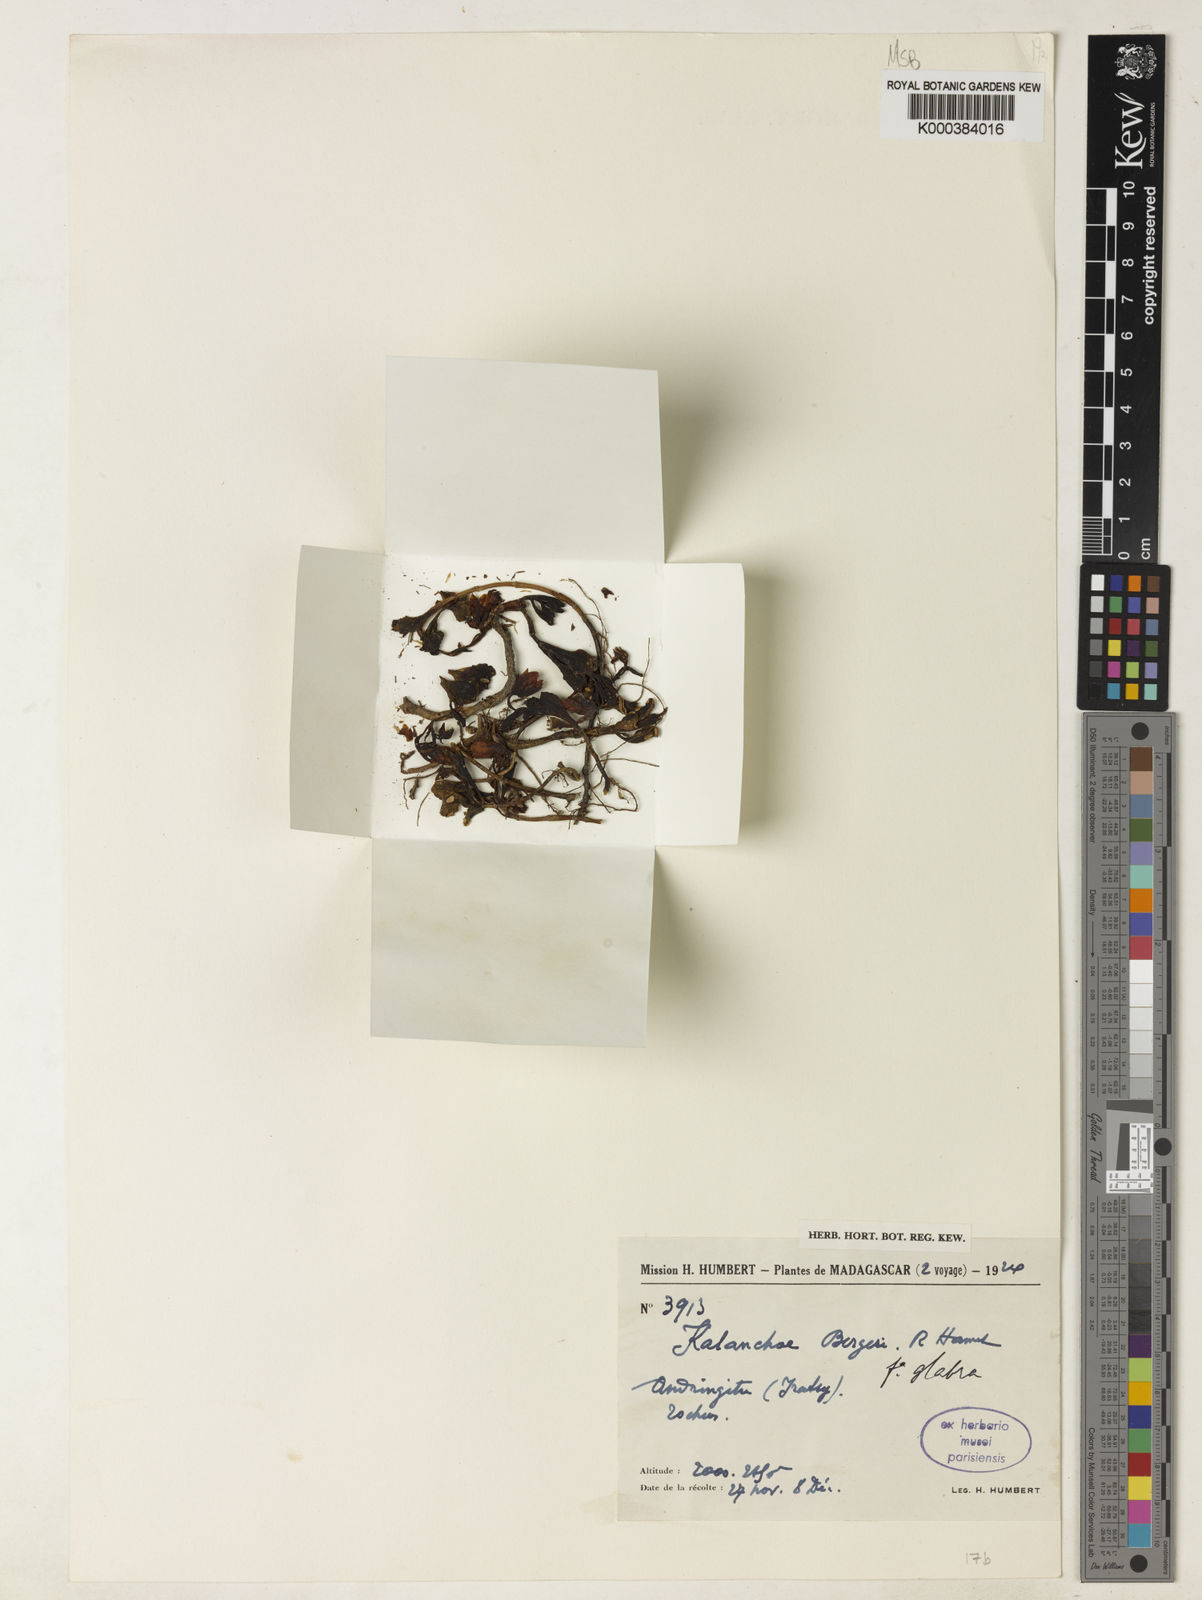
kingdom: Plantae
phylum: Tracheophyta
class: Magnoliopsida
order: Saxifragales
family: Crassulaceae
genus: Kalanchoe
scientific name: Kalanchoe bergeri
